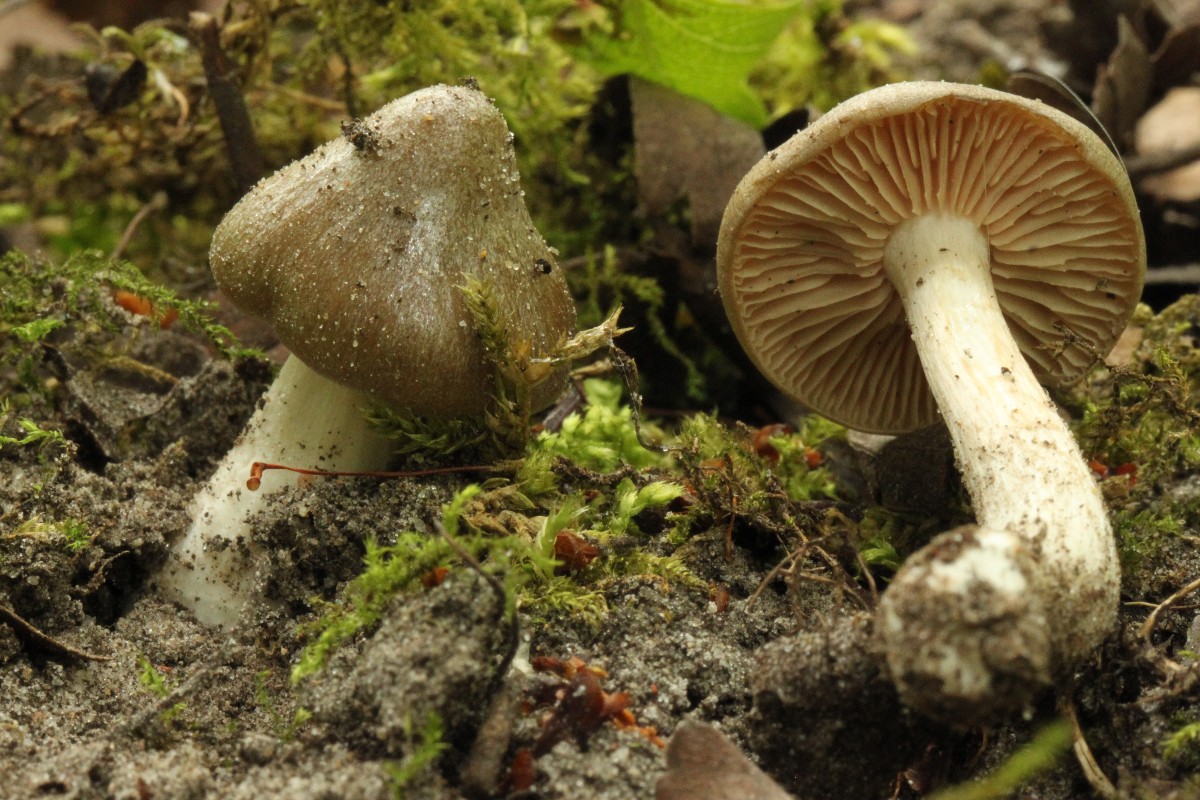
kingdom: Fungi
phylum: Basidiomycota
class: Agaricomycetes
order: Agaricales
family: Entolomataceae
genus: Entoloma
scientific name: Entoloma clypeatum
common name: flammet rødblad
